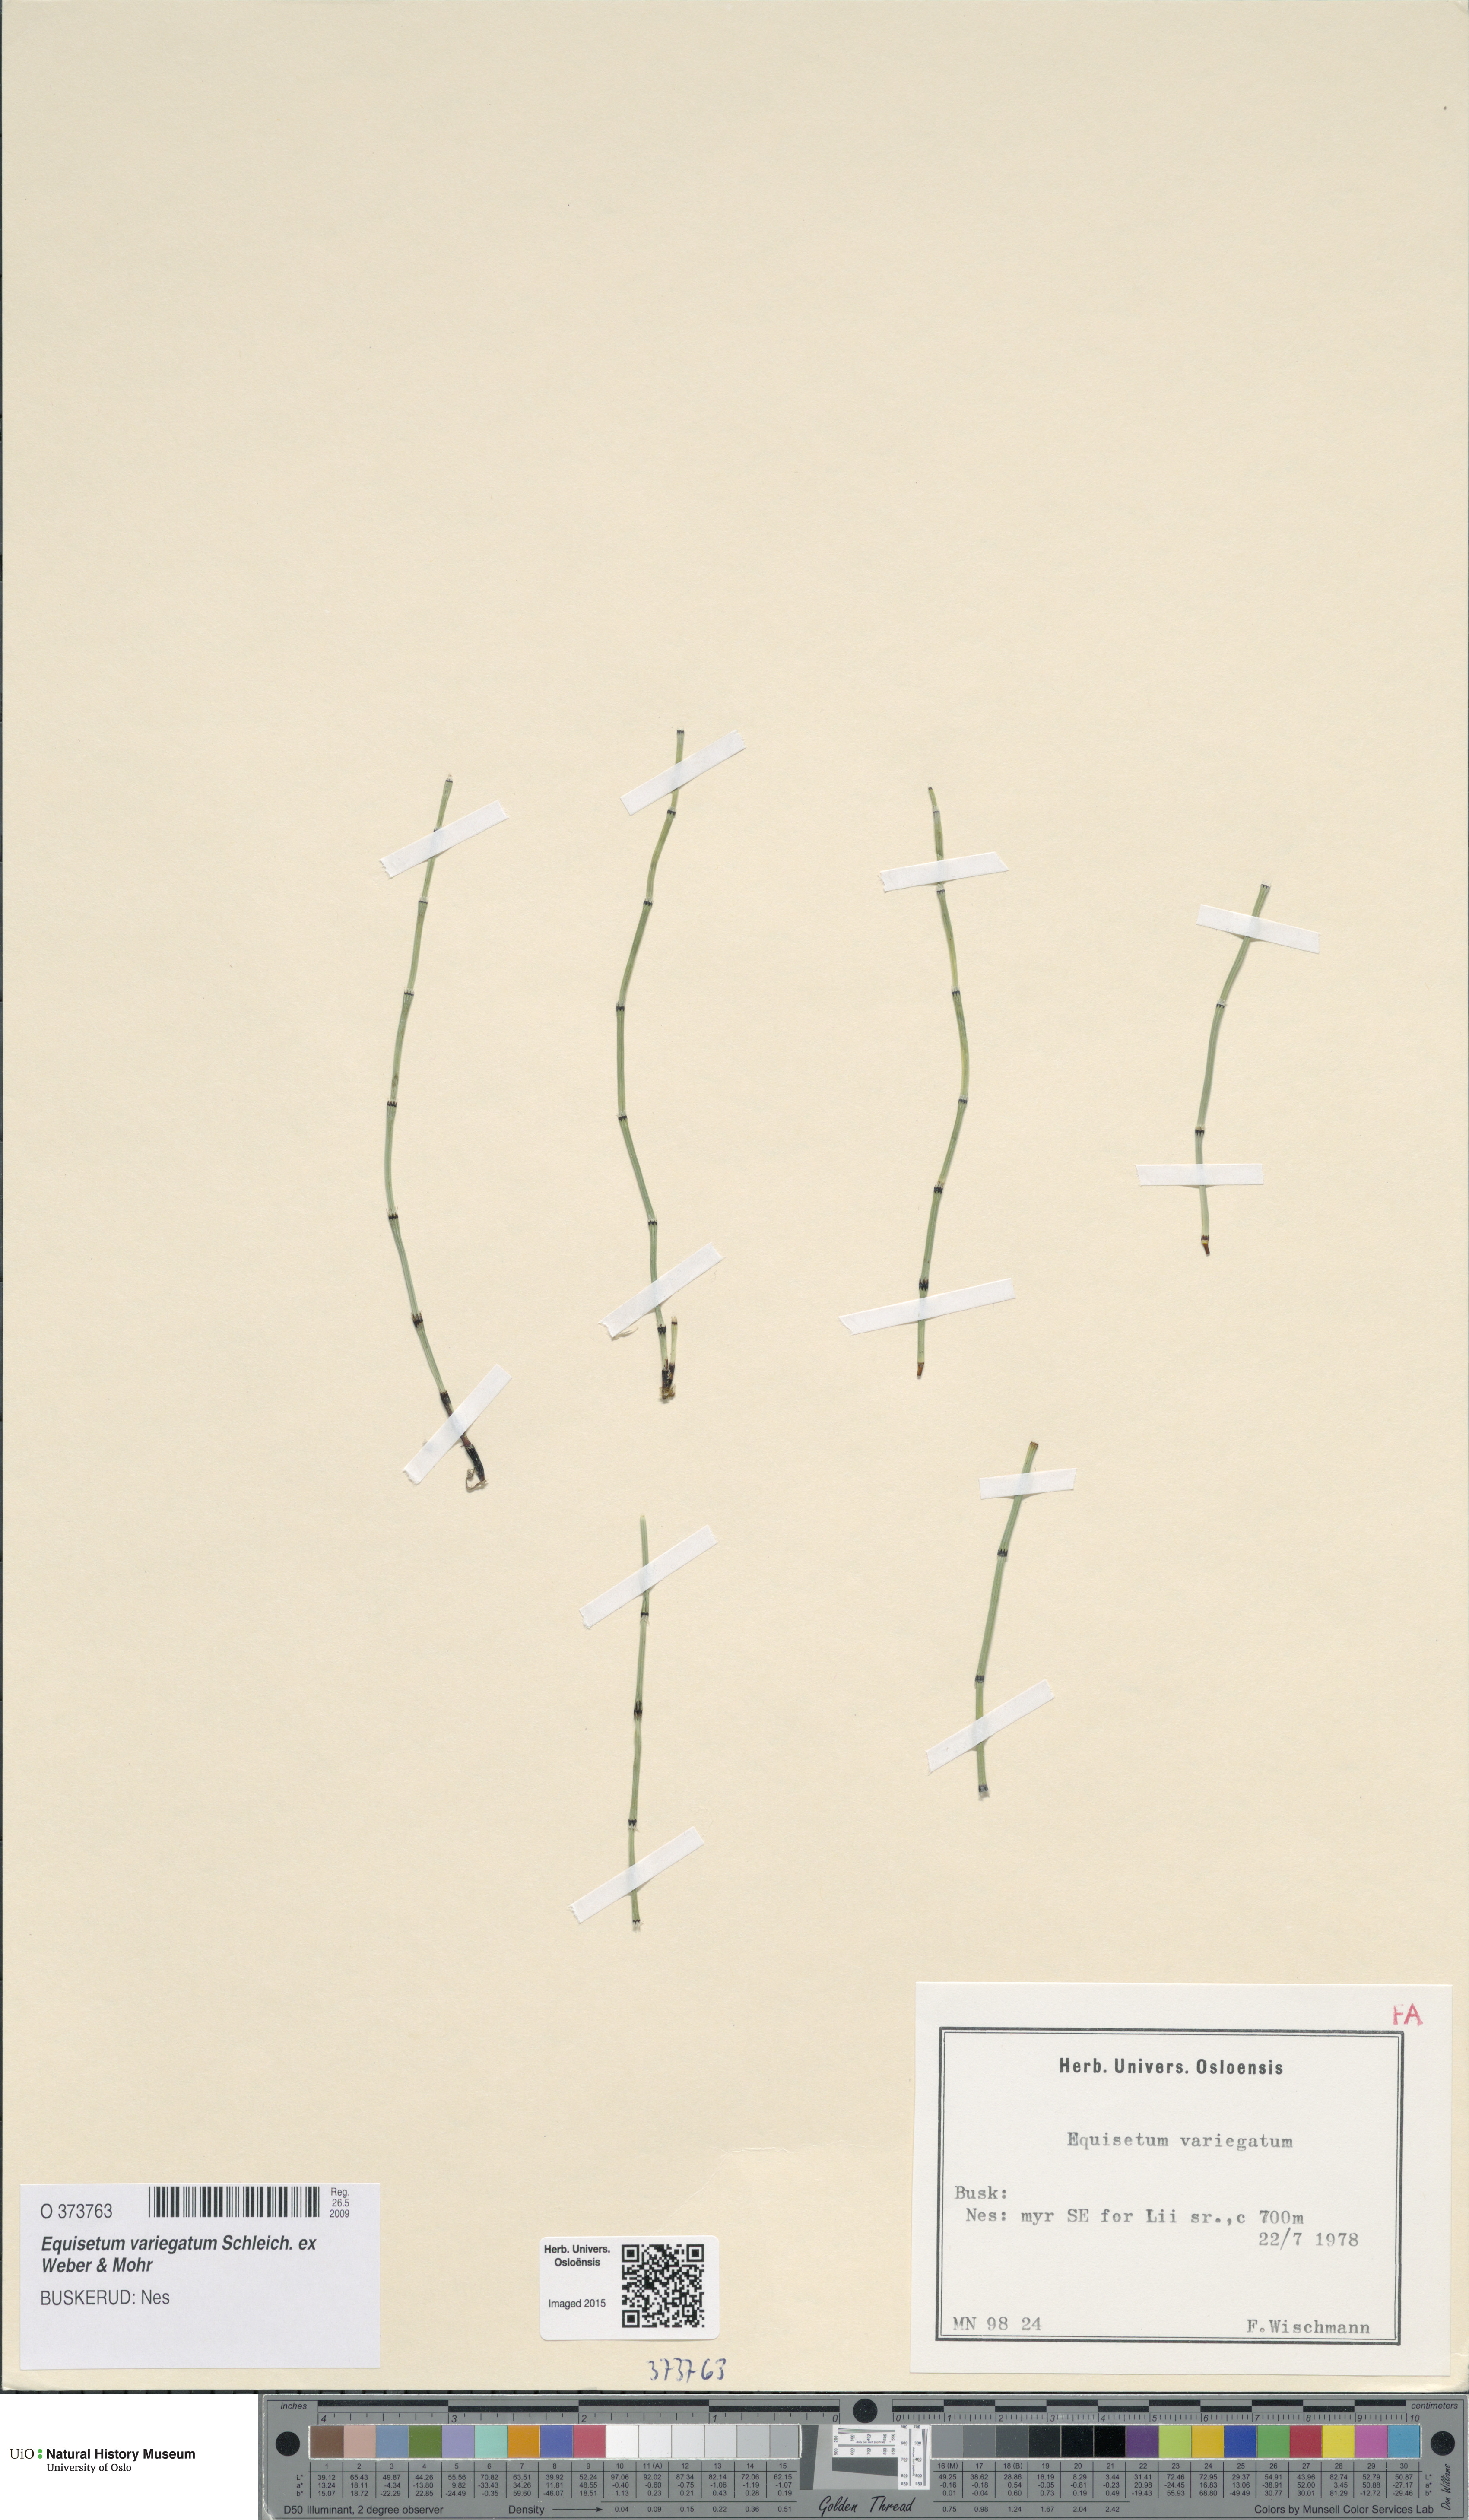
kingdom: Plantae
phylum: Tracheophyta
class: Polypodiopsida
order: Equisetales
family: Equisetaceae
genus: Equisetum
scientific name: Equisetum variegatum
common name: Variegated horsetail
